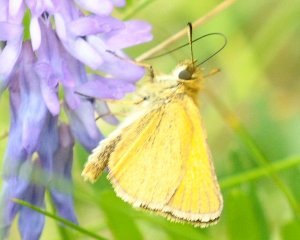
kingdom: Animalia
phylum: Arthropoda
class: Insecta
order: Lepidoptera
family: Hesperiidae
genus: Thymelicus
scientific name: Thymelicus lineola
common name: European Skipper
